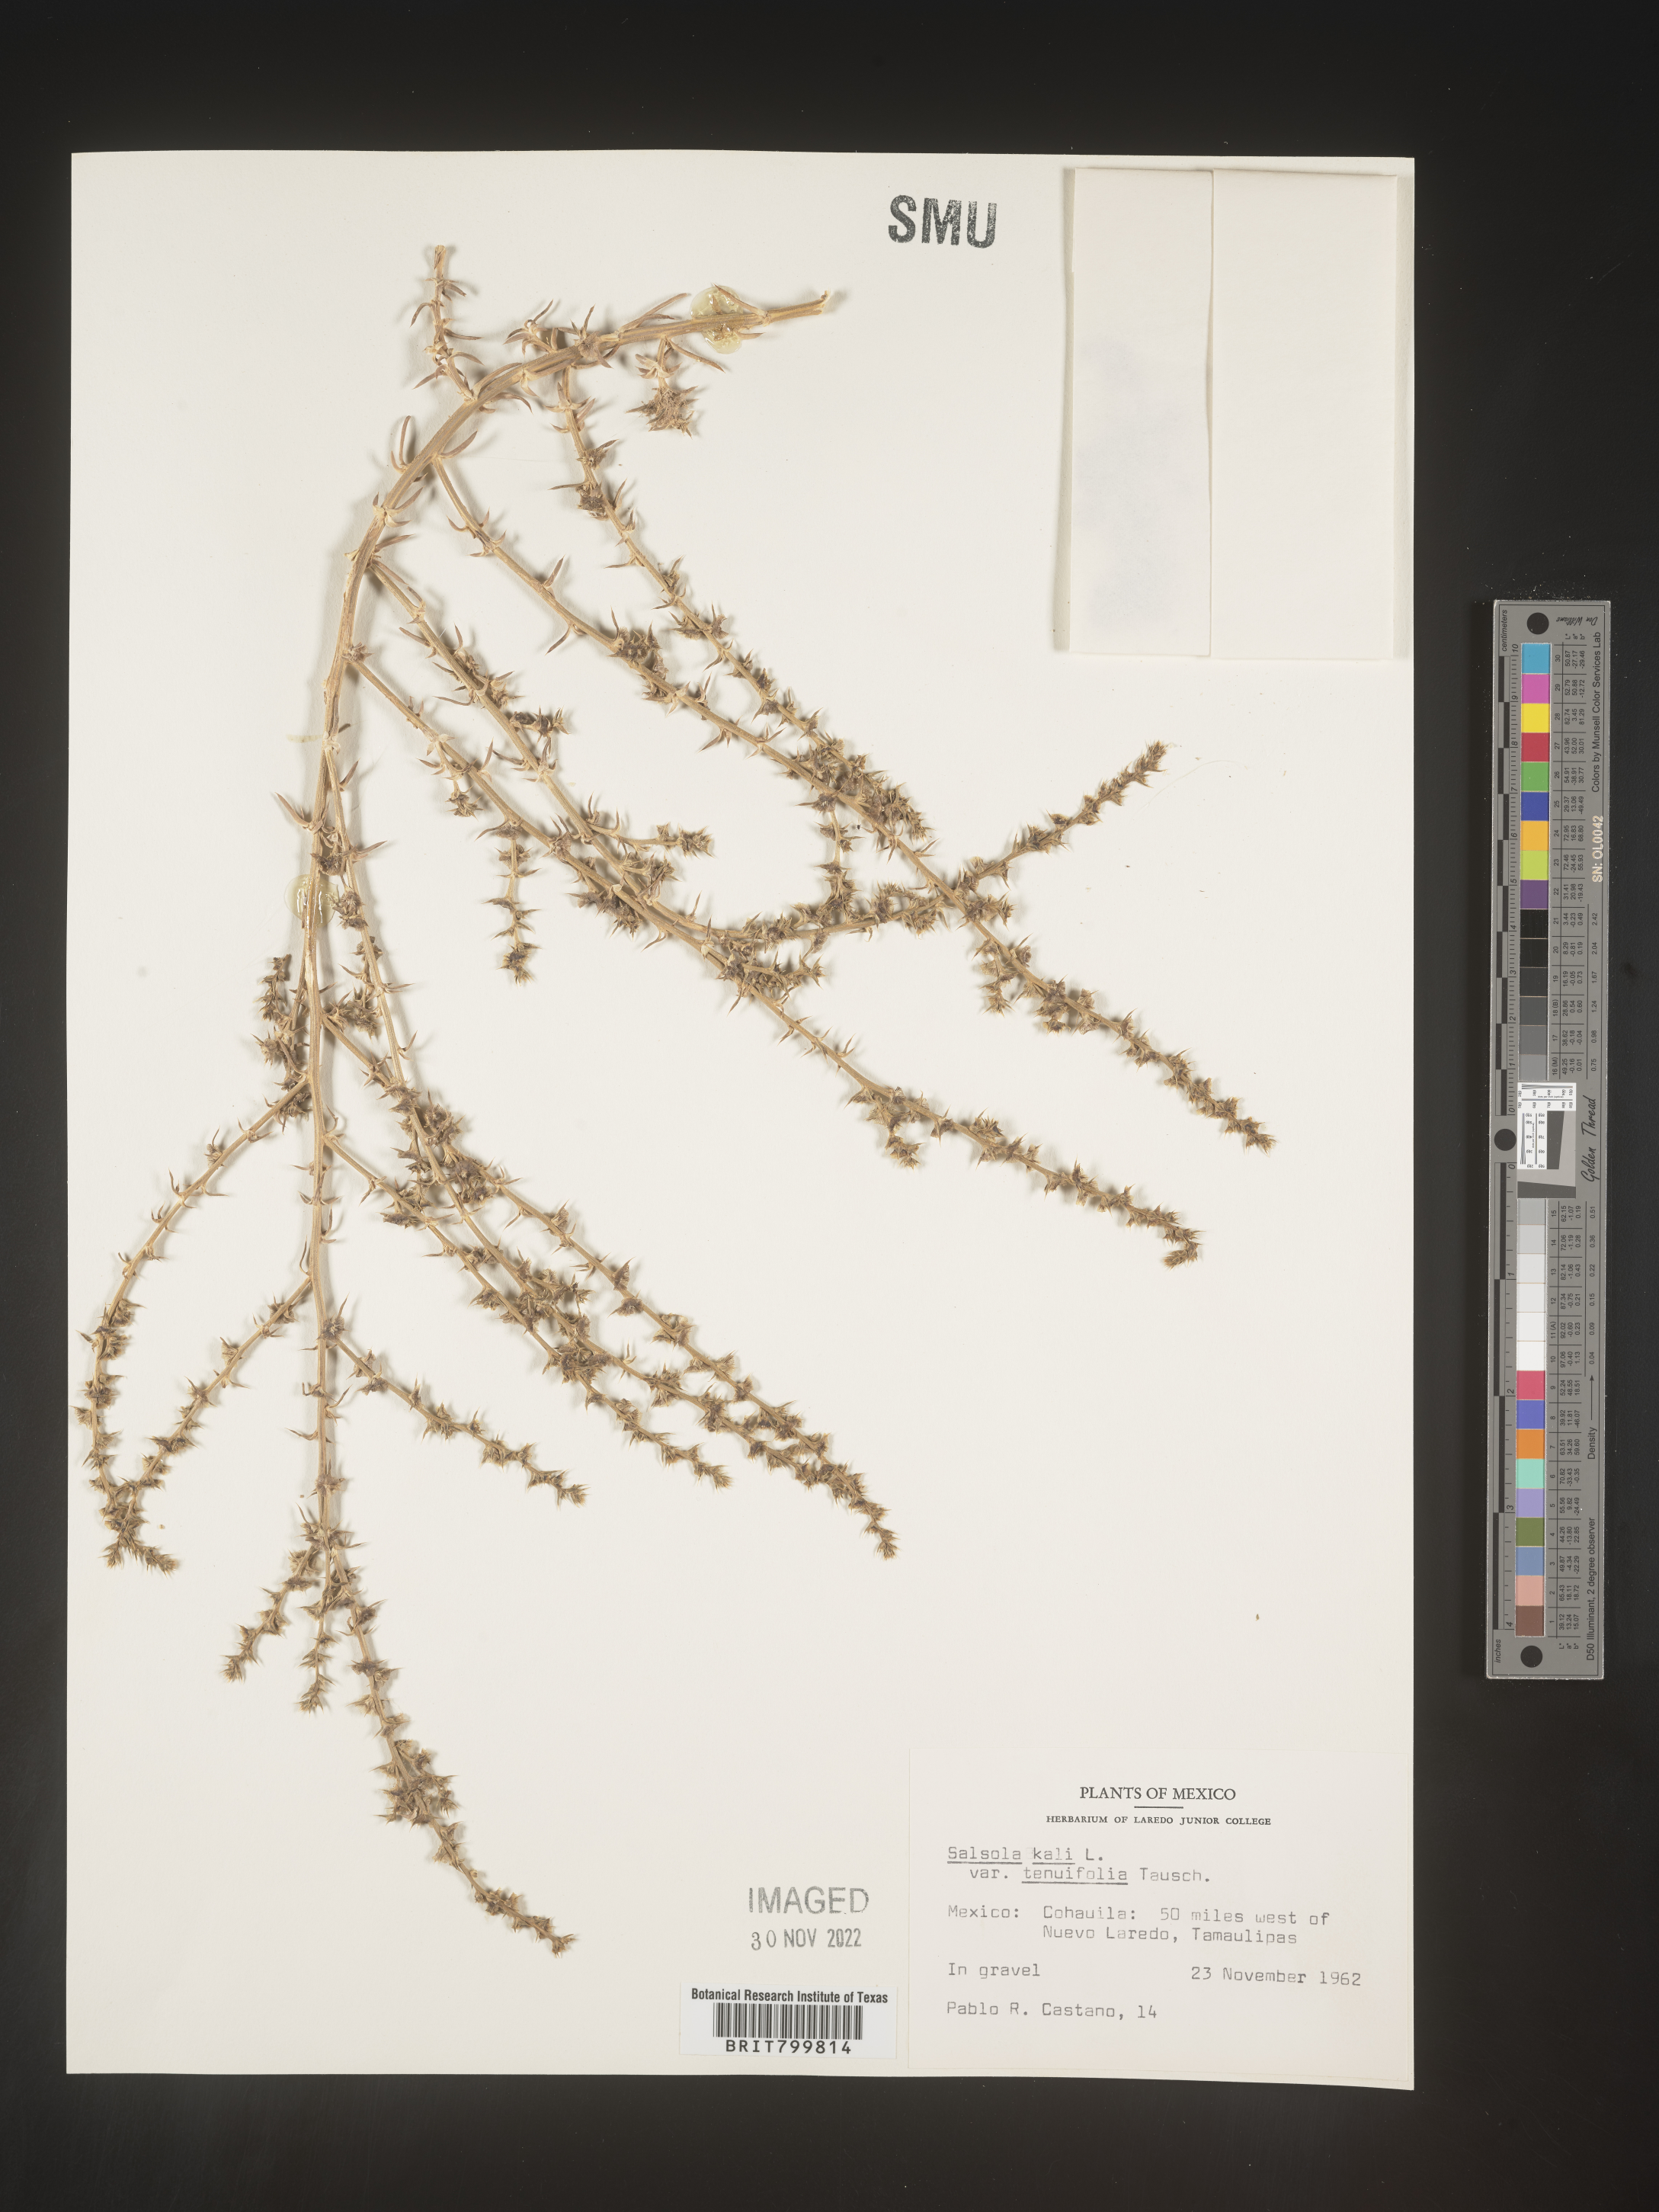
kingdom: Plantae
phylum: Tracheophyta
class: Magnoliopsida
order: Caryophyllales
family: Amaranthaceae
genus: Salsola
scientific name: Salsola
